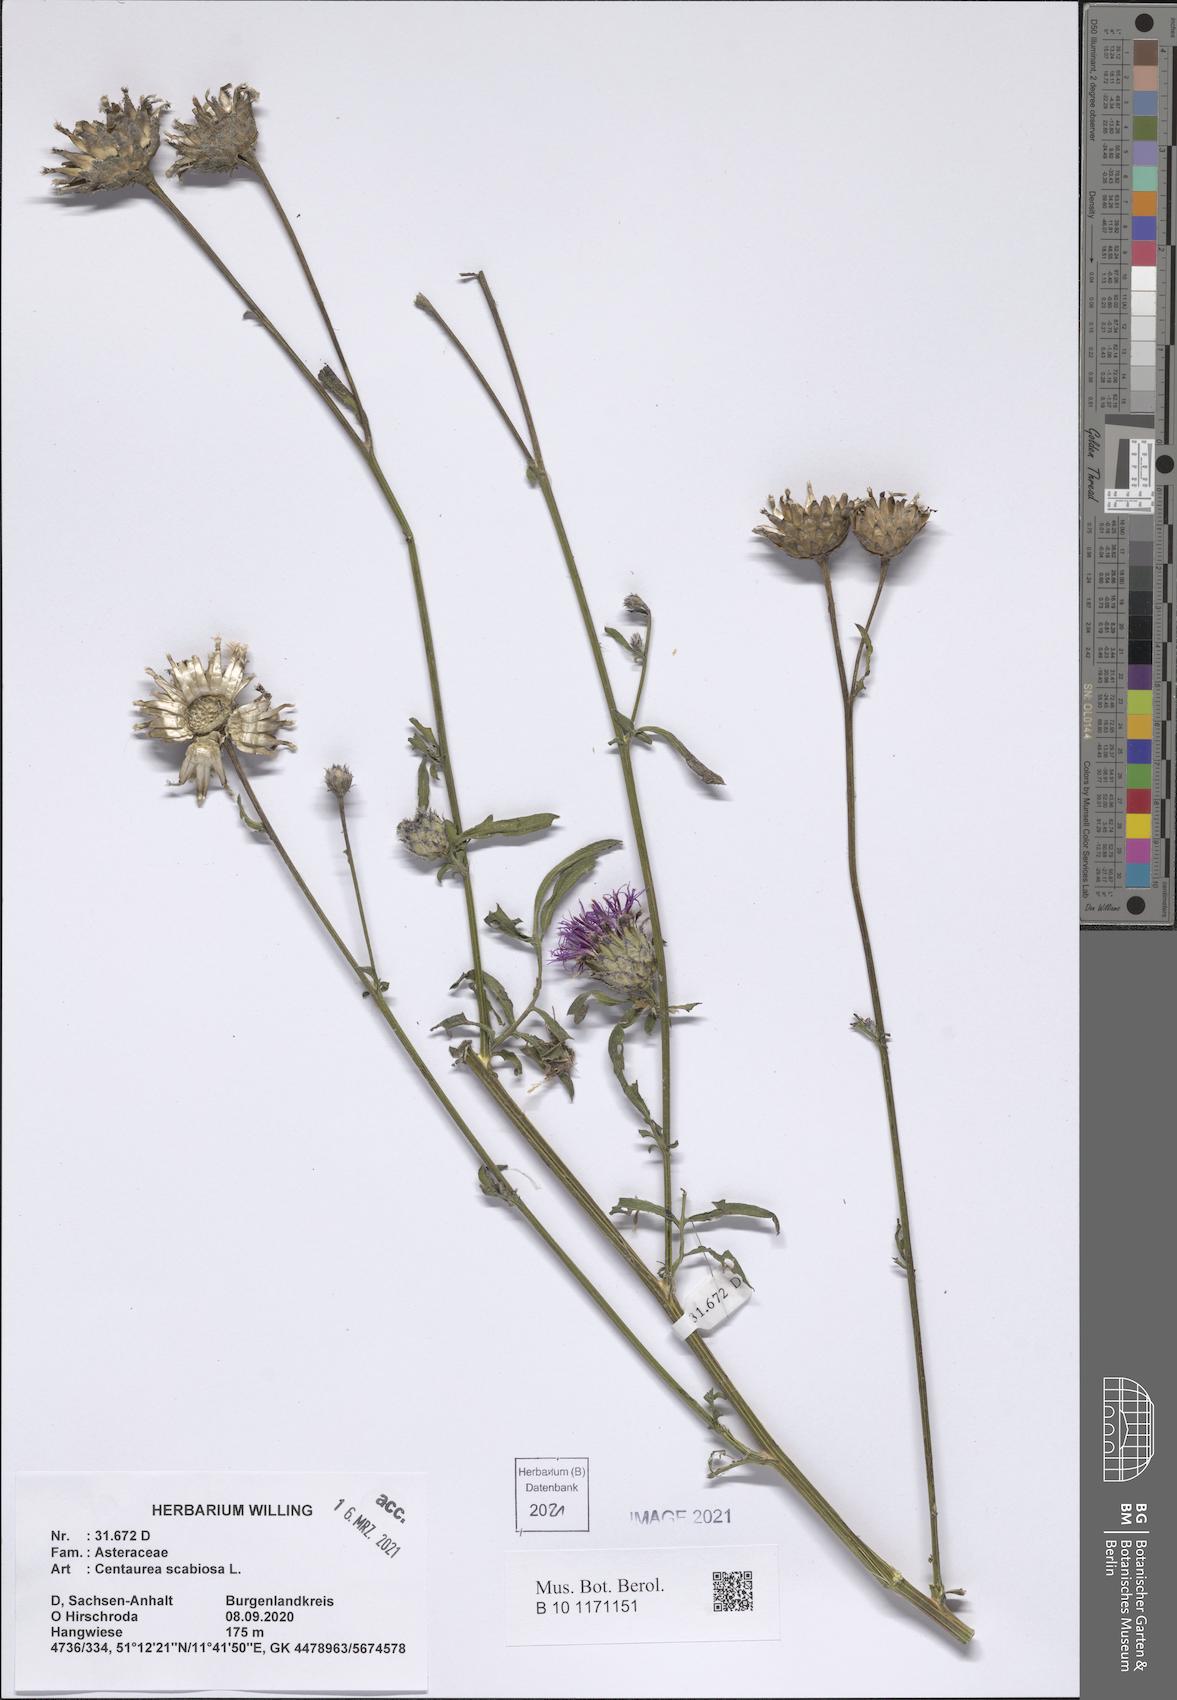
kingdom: Plantae
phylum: Tracheophyta
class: Magnoliopsida
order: Asterales
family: Asteraceae
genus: Centaurea
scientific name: Centaurea scabiosa
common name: Greater knapweed
